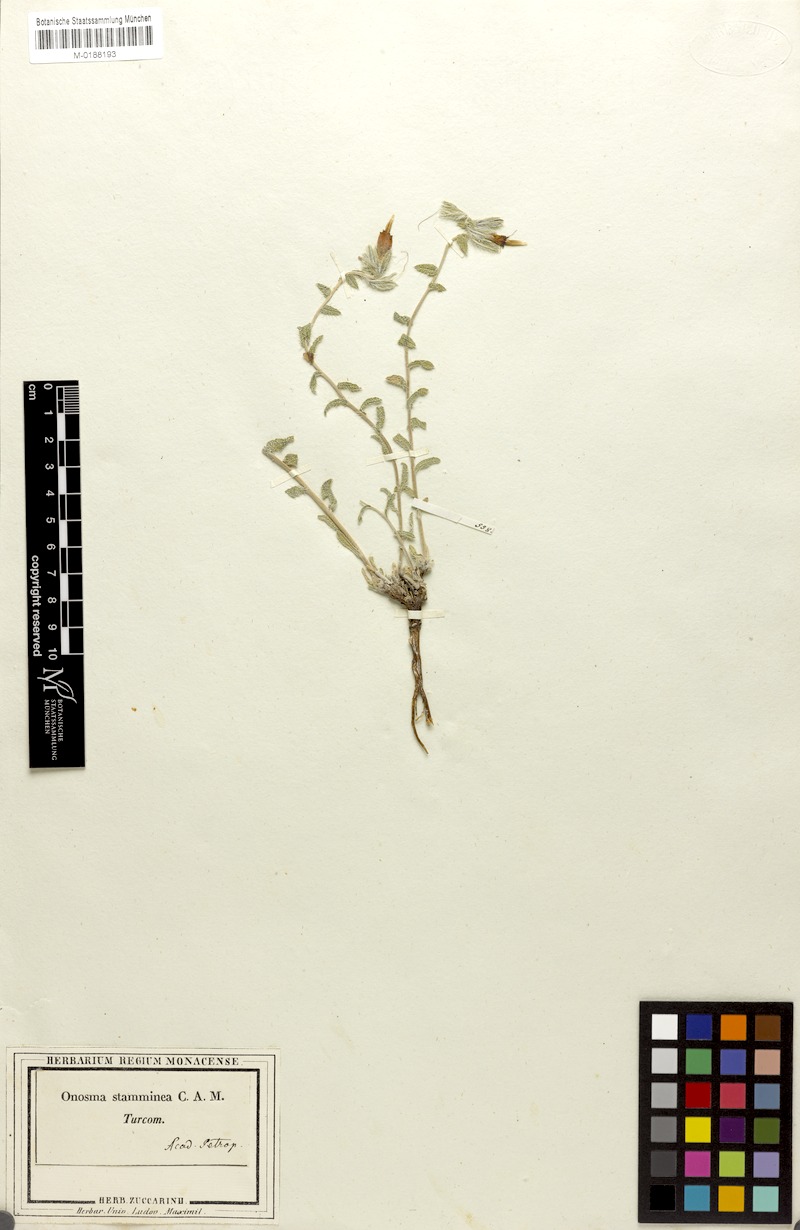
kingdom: Plantae
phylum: Tracheophyta
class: Magnoliopsida
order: Boraginales
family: Boraginaceae
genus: Onosma
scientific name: Onosma staminea
